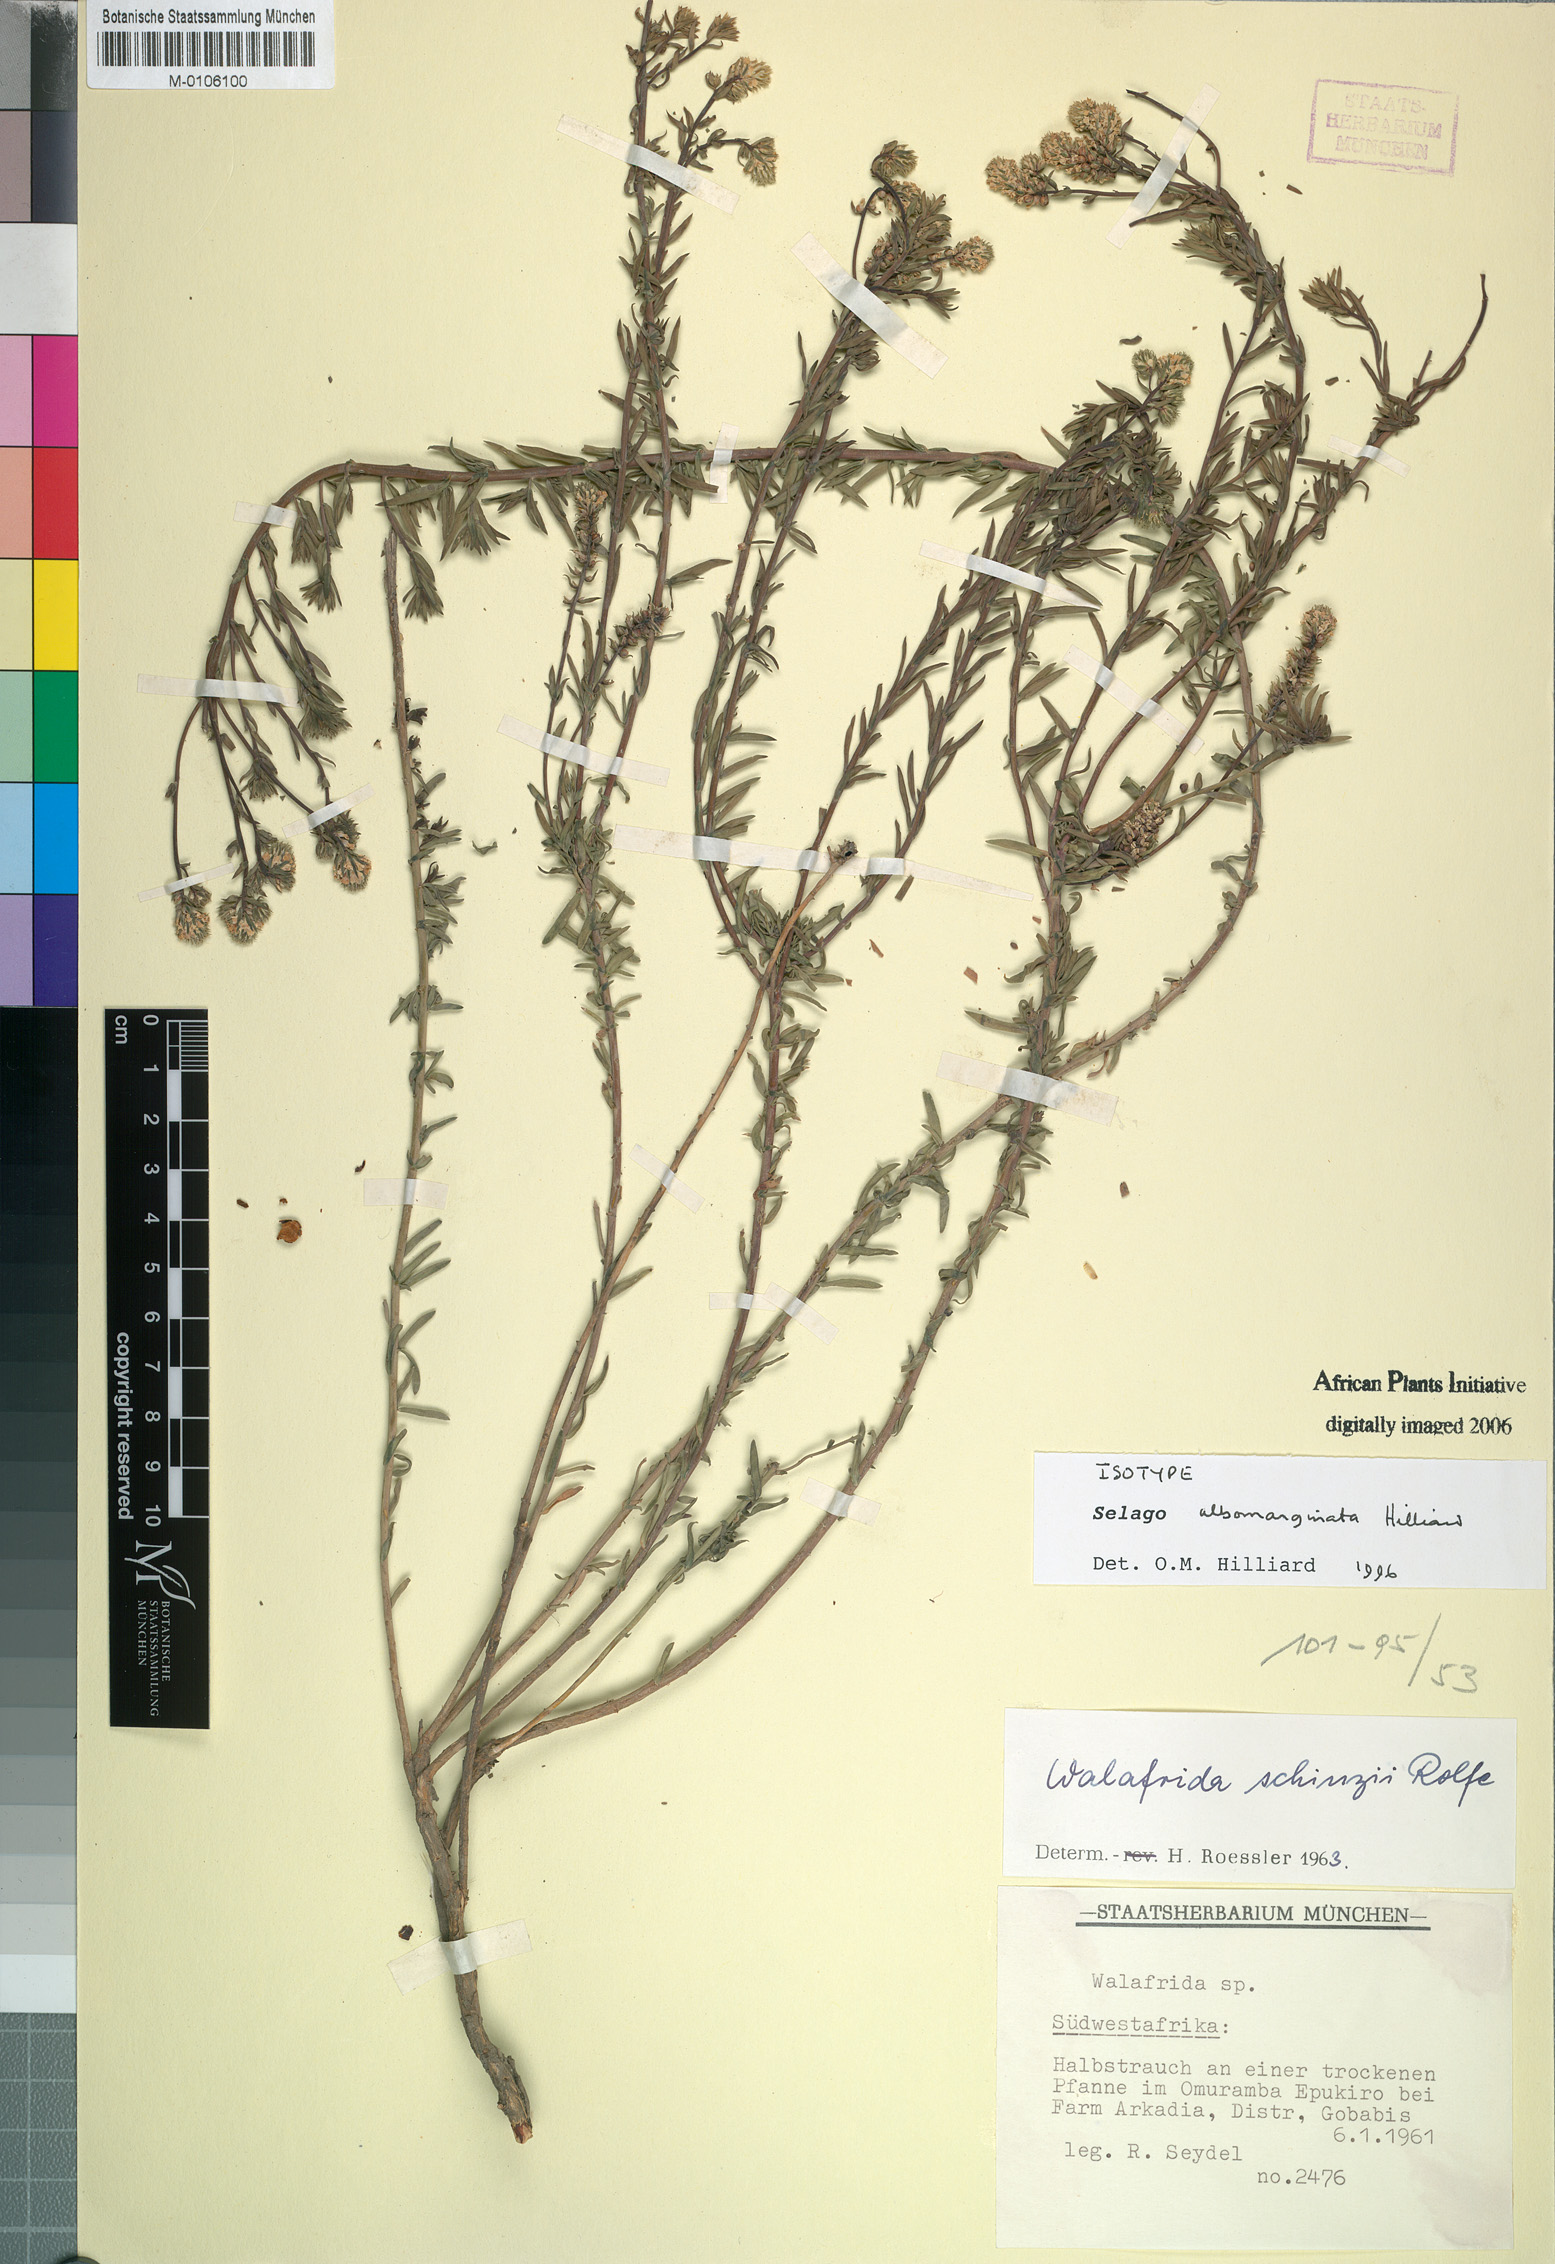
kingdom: Plantae
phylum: Tracheophyta
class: Magnoliopsida
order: Lamiales
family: Scrophulariaceae
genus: Selago
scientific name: Selago albomarginata
